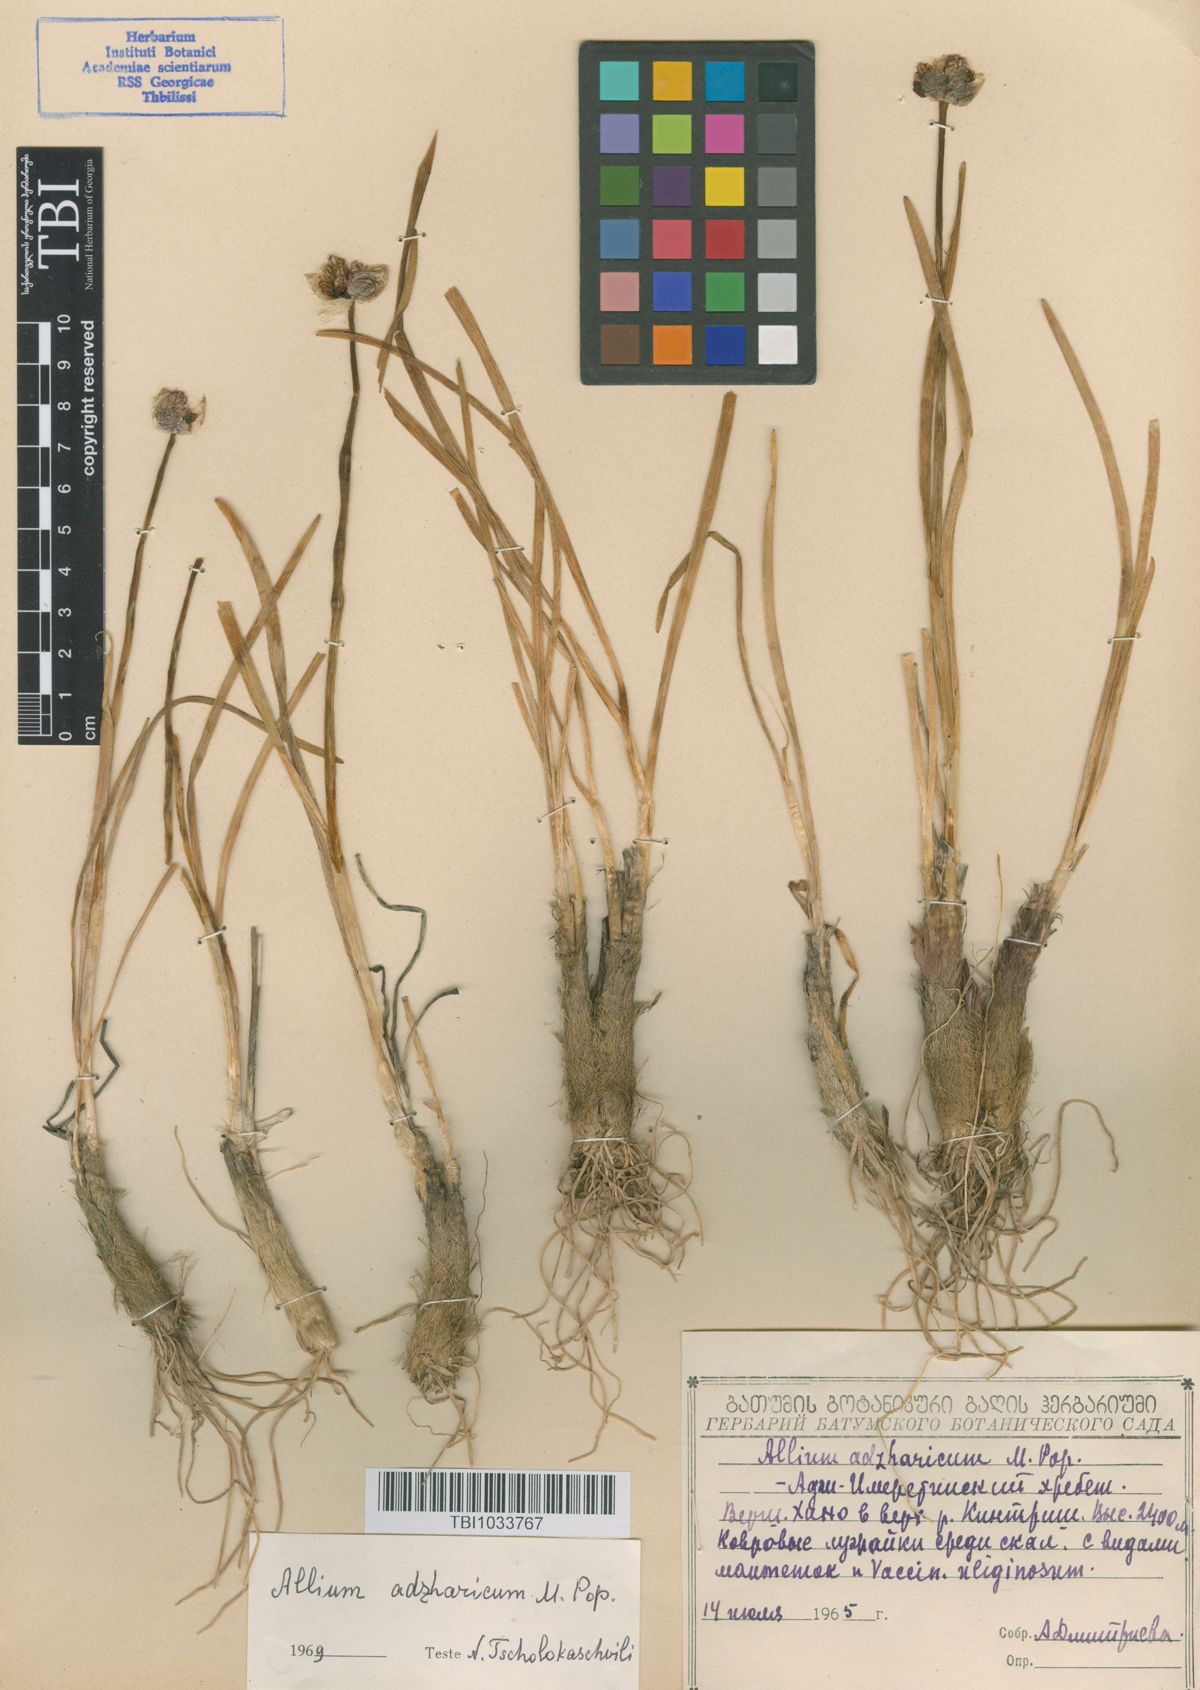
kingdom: Plantae
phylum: Tracheophyta
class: Liliopsida
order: Asparagales
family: Amaryllidaceae
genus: Allium
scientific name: Allium pseudostrictum
